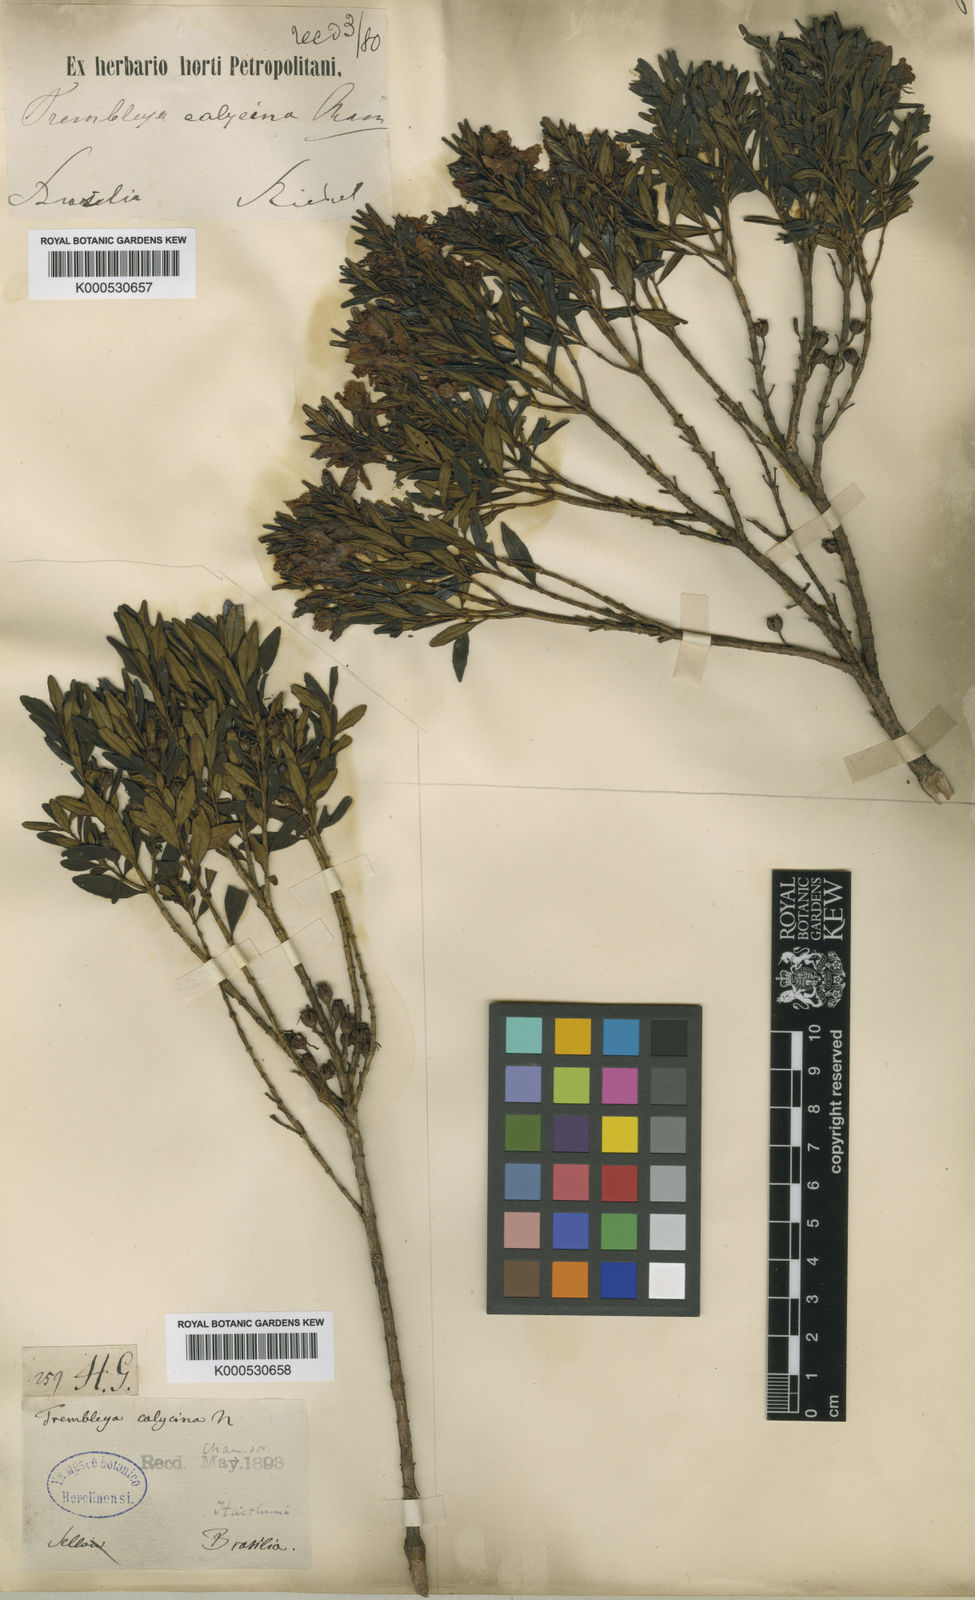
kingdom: Plantae
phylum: Tracheophyta
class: Magnoliopsida
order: Myrtales
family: Melastomataceae
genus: Microlicia
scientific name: Microlicia calycina
